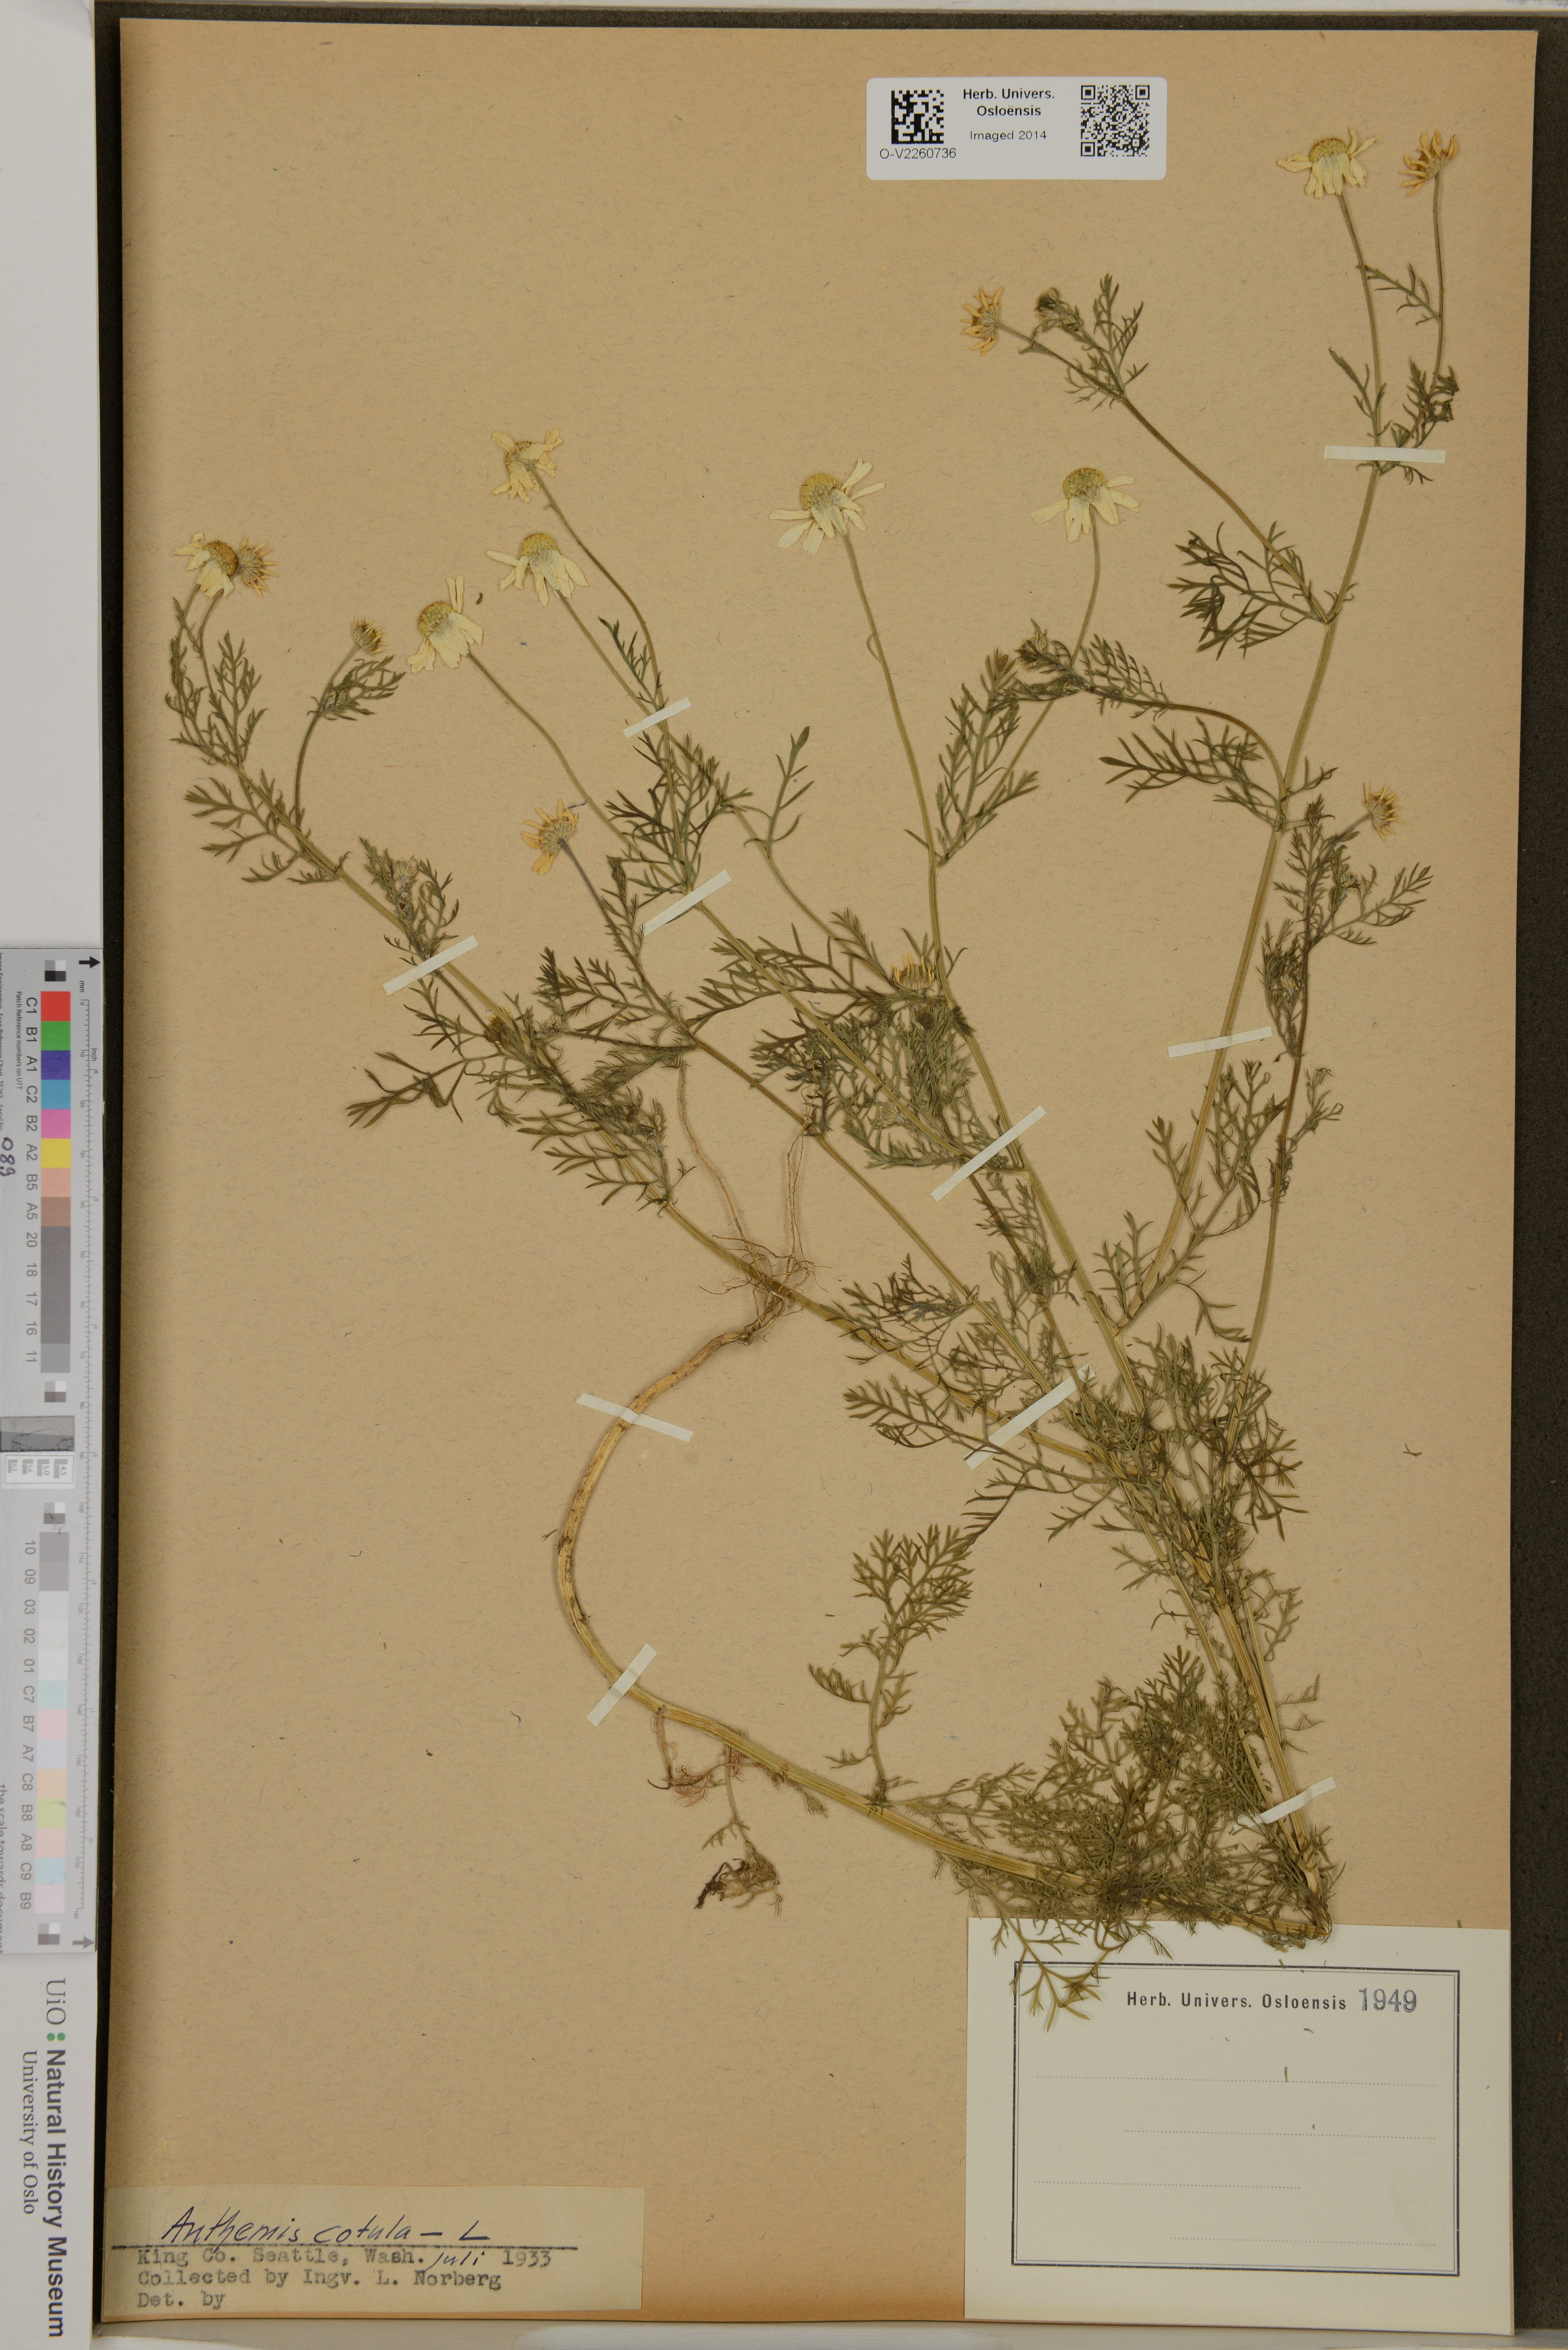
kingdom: Plantae
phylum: Tracheophyta
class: Magnoliopsida
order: Asterales
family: Asteraceae
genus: Anthemis
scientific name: Anthemis cotula
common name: Stinking chamomile
